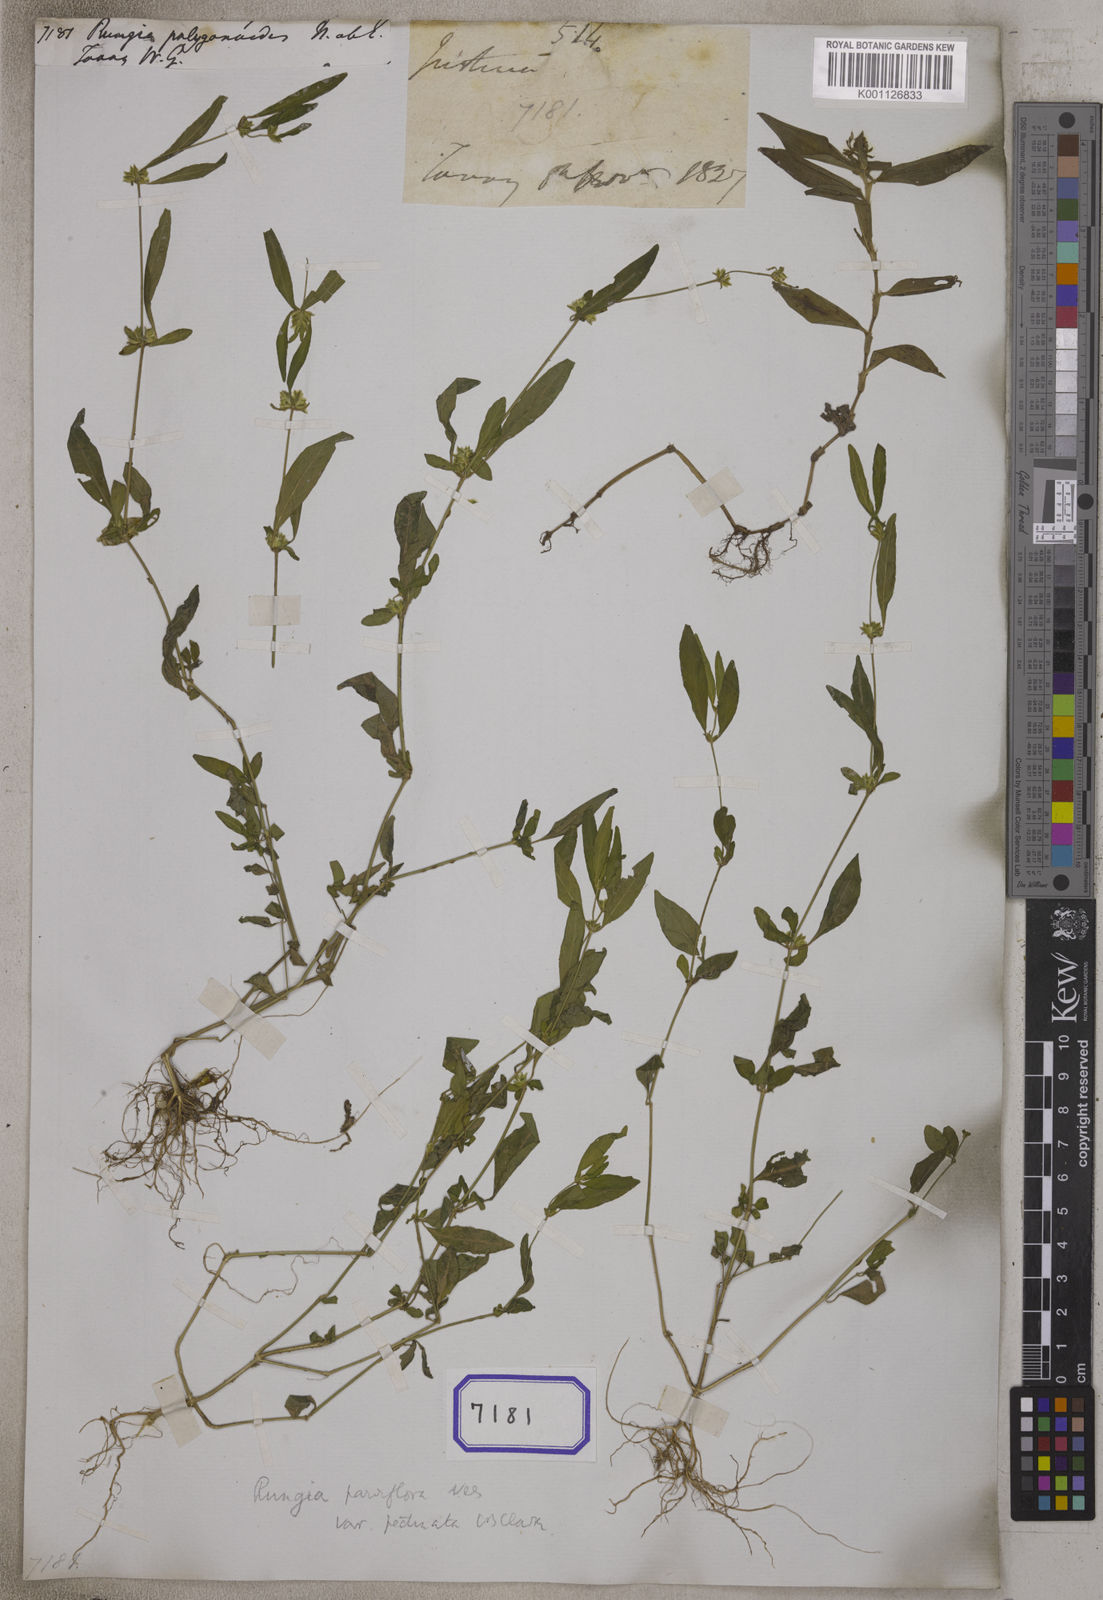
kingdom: Plantae
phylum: Tracheophyta
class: Magnoliopsida
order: Lamiales
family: Acanthaceae
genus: Rungia
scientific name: Rungia parviflora
